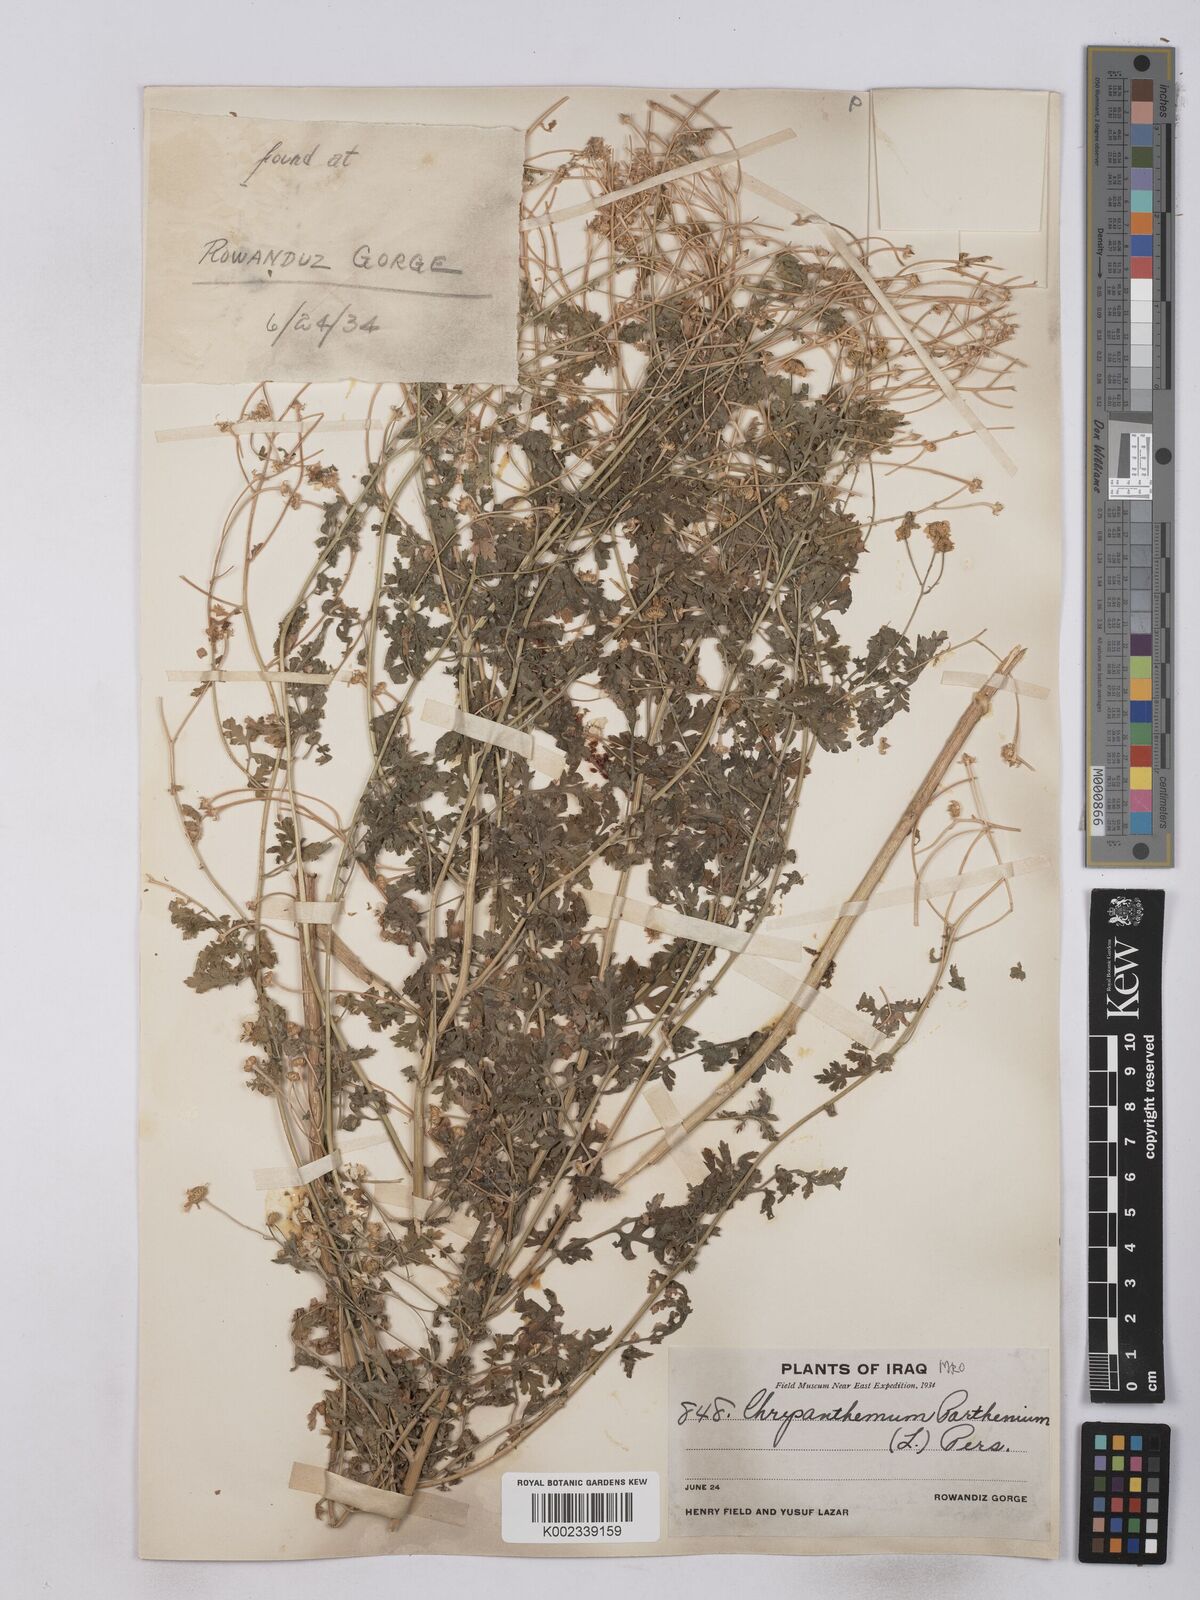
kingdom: Plantae
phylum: Tracheophyta
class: Magnoliopsida
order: Asterales
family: Asteraceae
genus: Tanacetum
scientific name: Tanacetum partheniifolium
